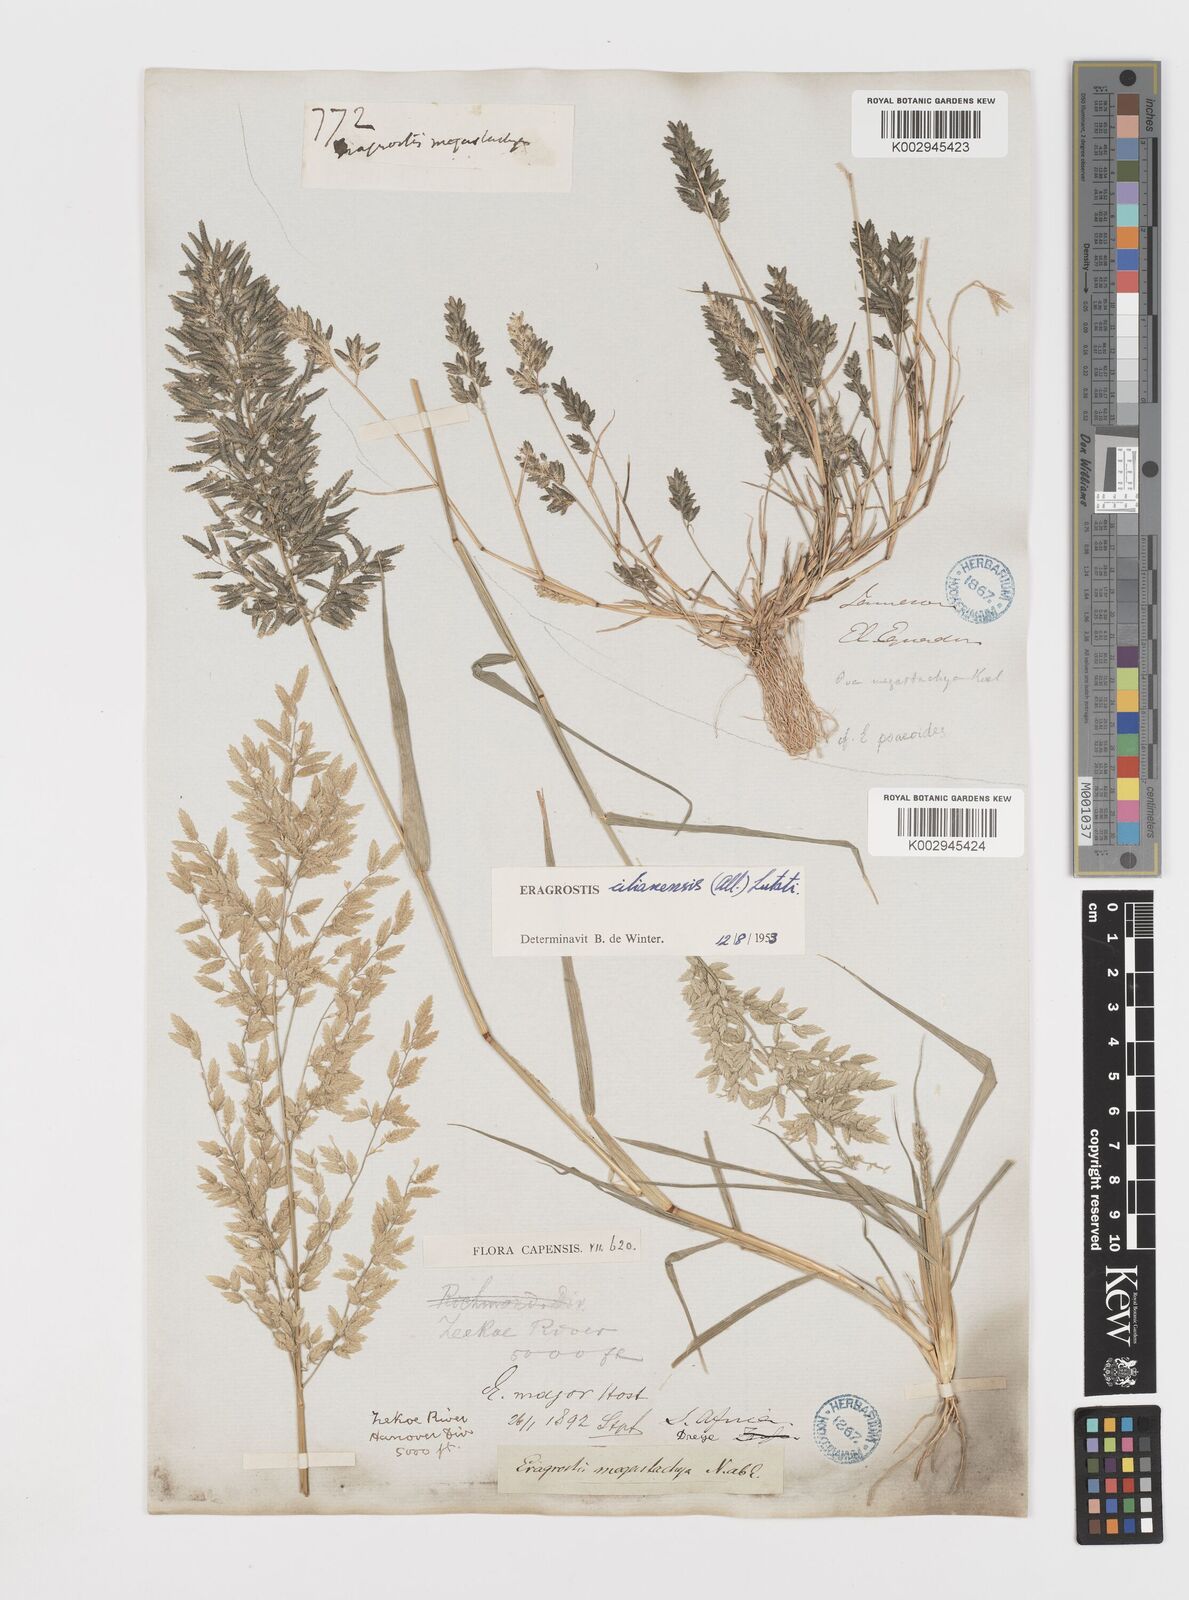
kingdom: Plantae
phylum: Tracheophyta
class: Liliopsida
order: Poales
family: Poaceae
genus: Eragrostis
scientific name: Eragrostis cilianensis
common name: Stinkgrass
